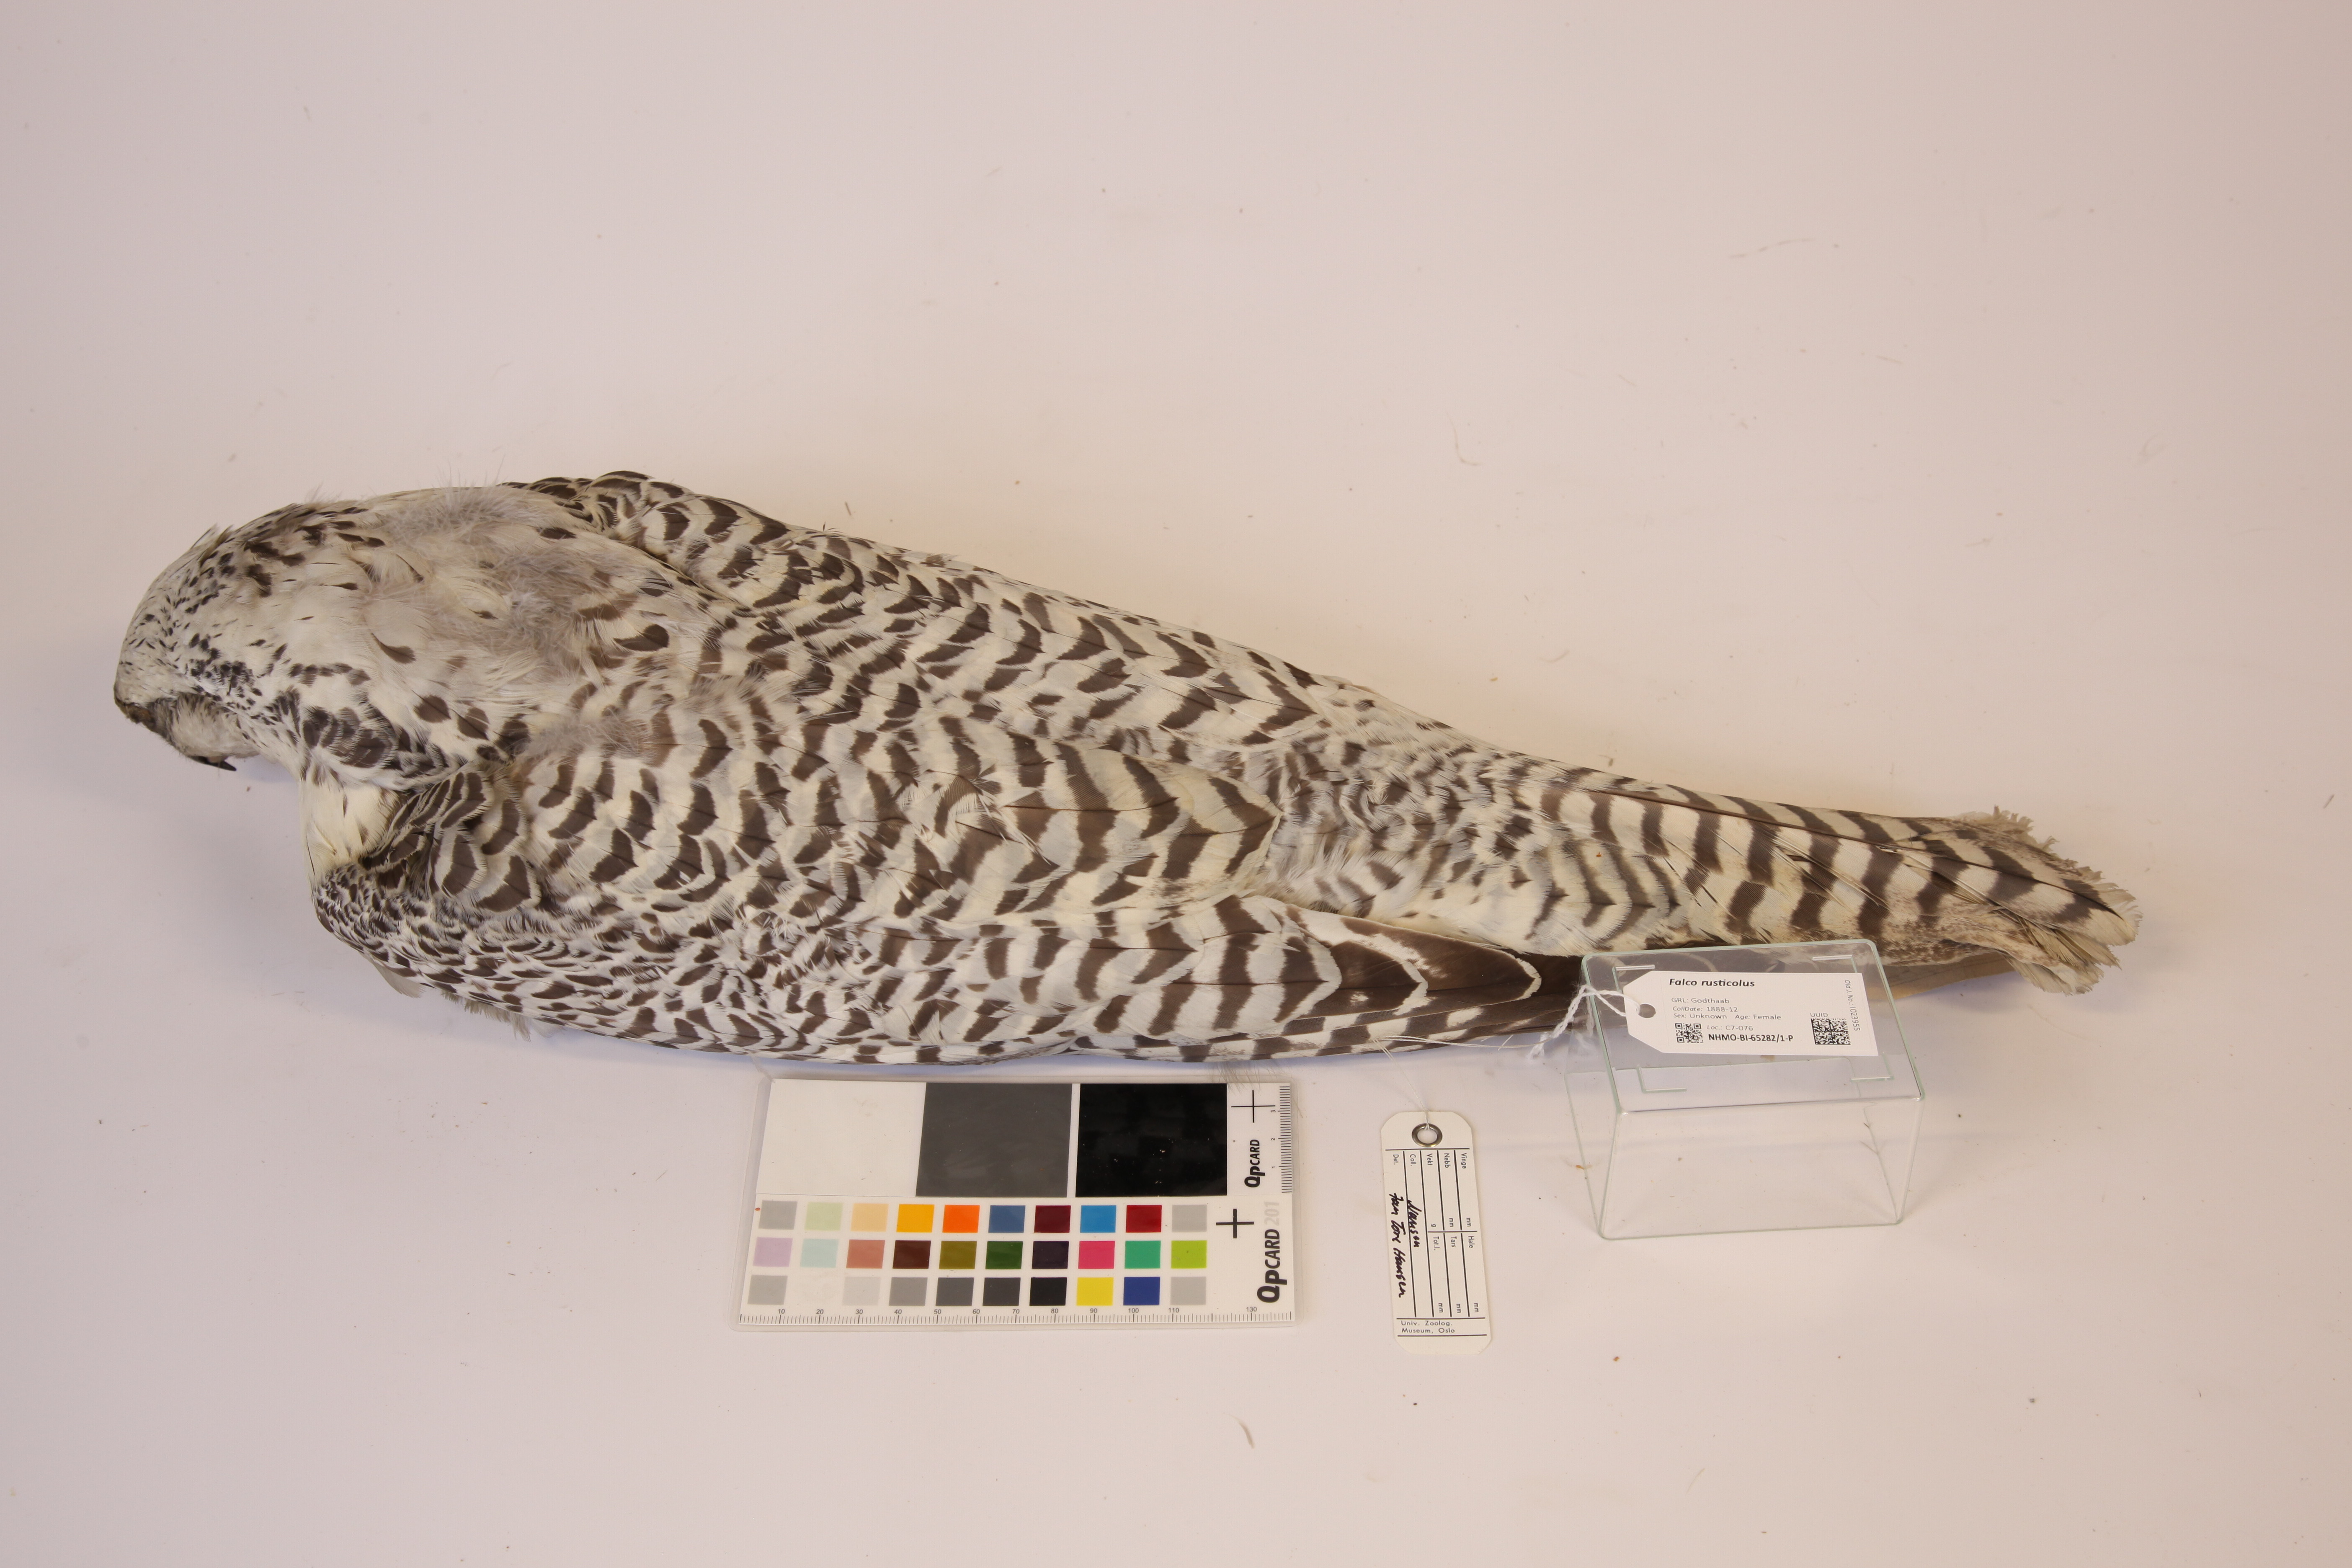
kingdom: Animalia
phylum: Chordata
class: Aves
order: Falconiformes
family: Falconidae
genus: Falco
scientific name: Falco rusticolus
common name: Gyrfalcon
